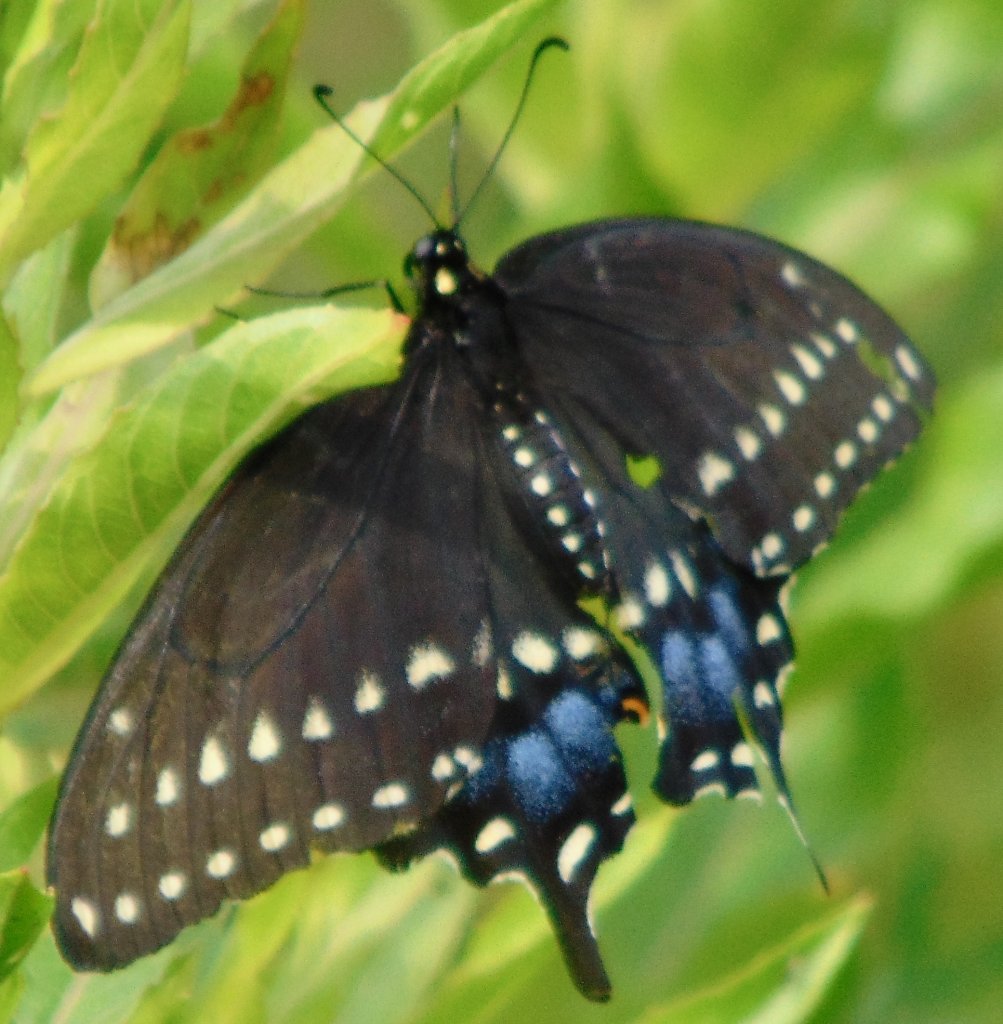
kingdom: Animalia
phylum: Arthropoda
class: Insecta
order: Lepidoptera
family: Papilionidae
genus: Papilio
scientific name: Papilio polyxenes
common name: Black Swallowtail
